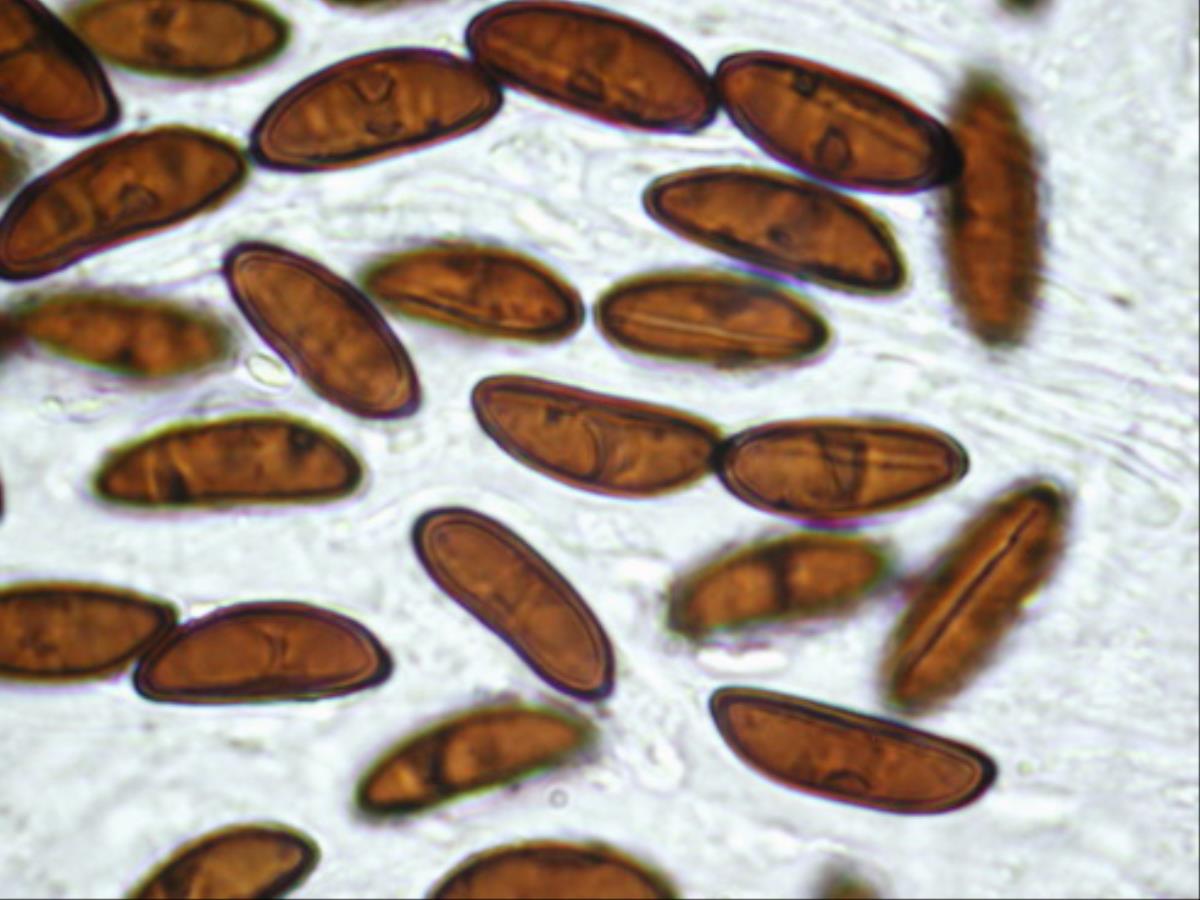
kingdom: Fungi
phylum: Ascomycota
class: Sordariomycetes
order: Xylariales
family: Xylariaceae
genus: Xylaria
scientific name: Xylaria arbuscula
